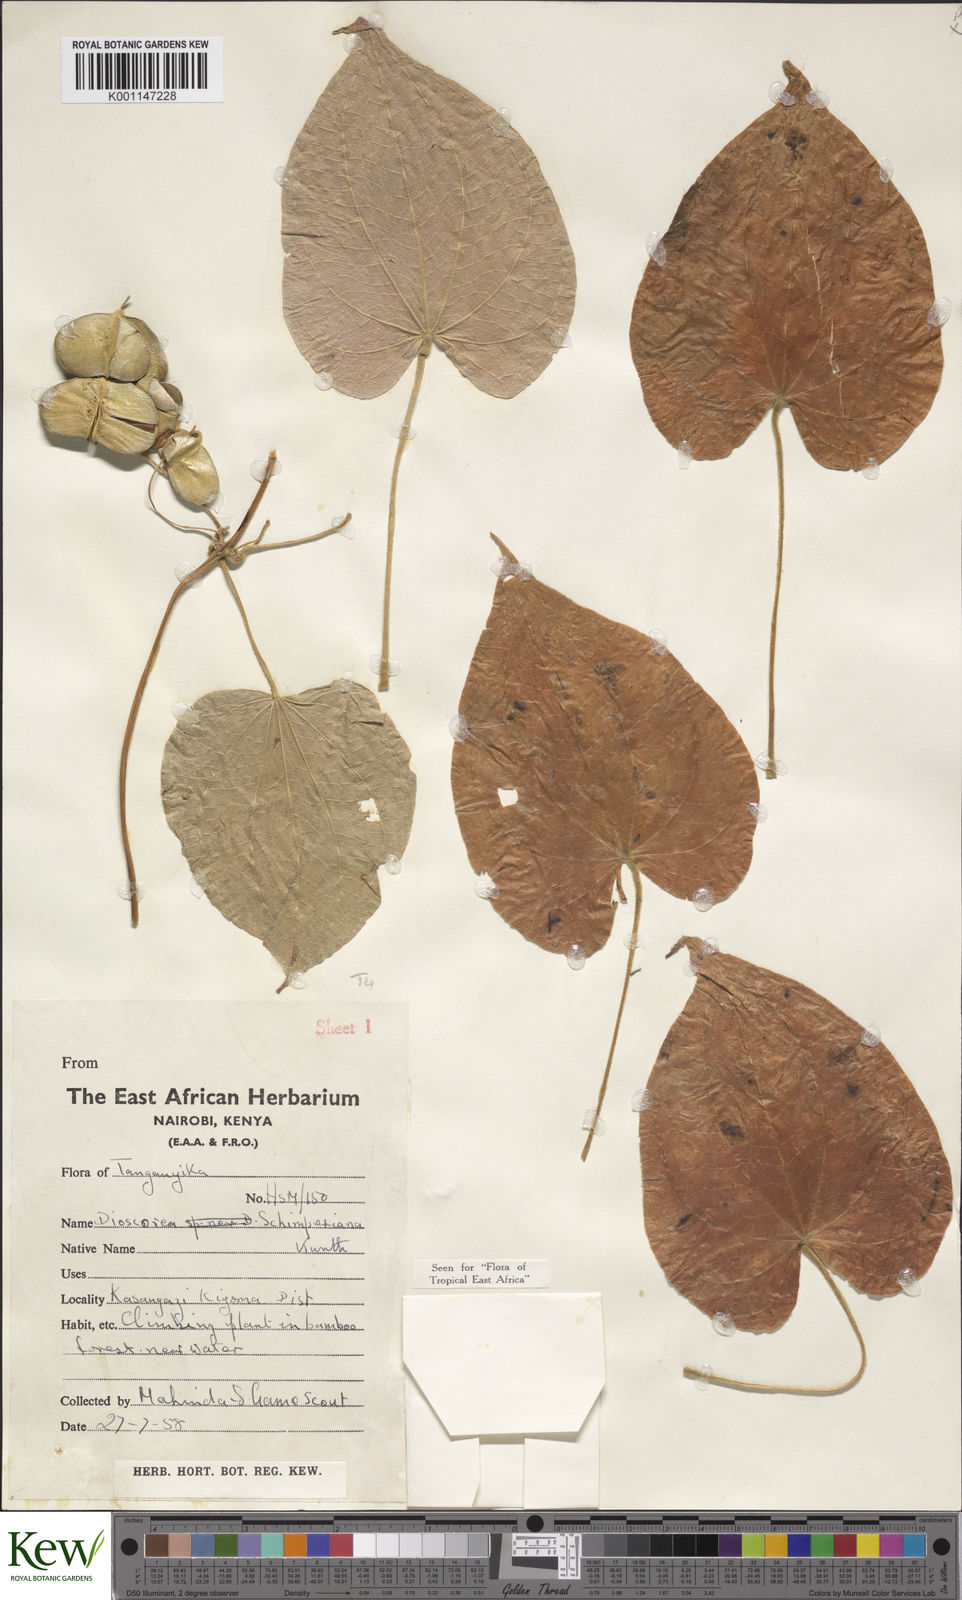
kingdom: Plantae
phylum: Tracheophyta
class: Liliopsida
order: Dioscoreales
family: Dioscoreaceae
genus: Dioscorea
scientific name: Dioscorea schimperiana
